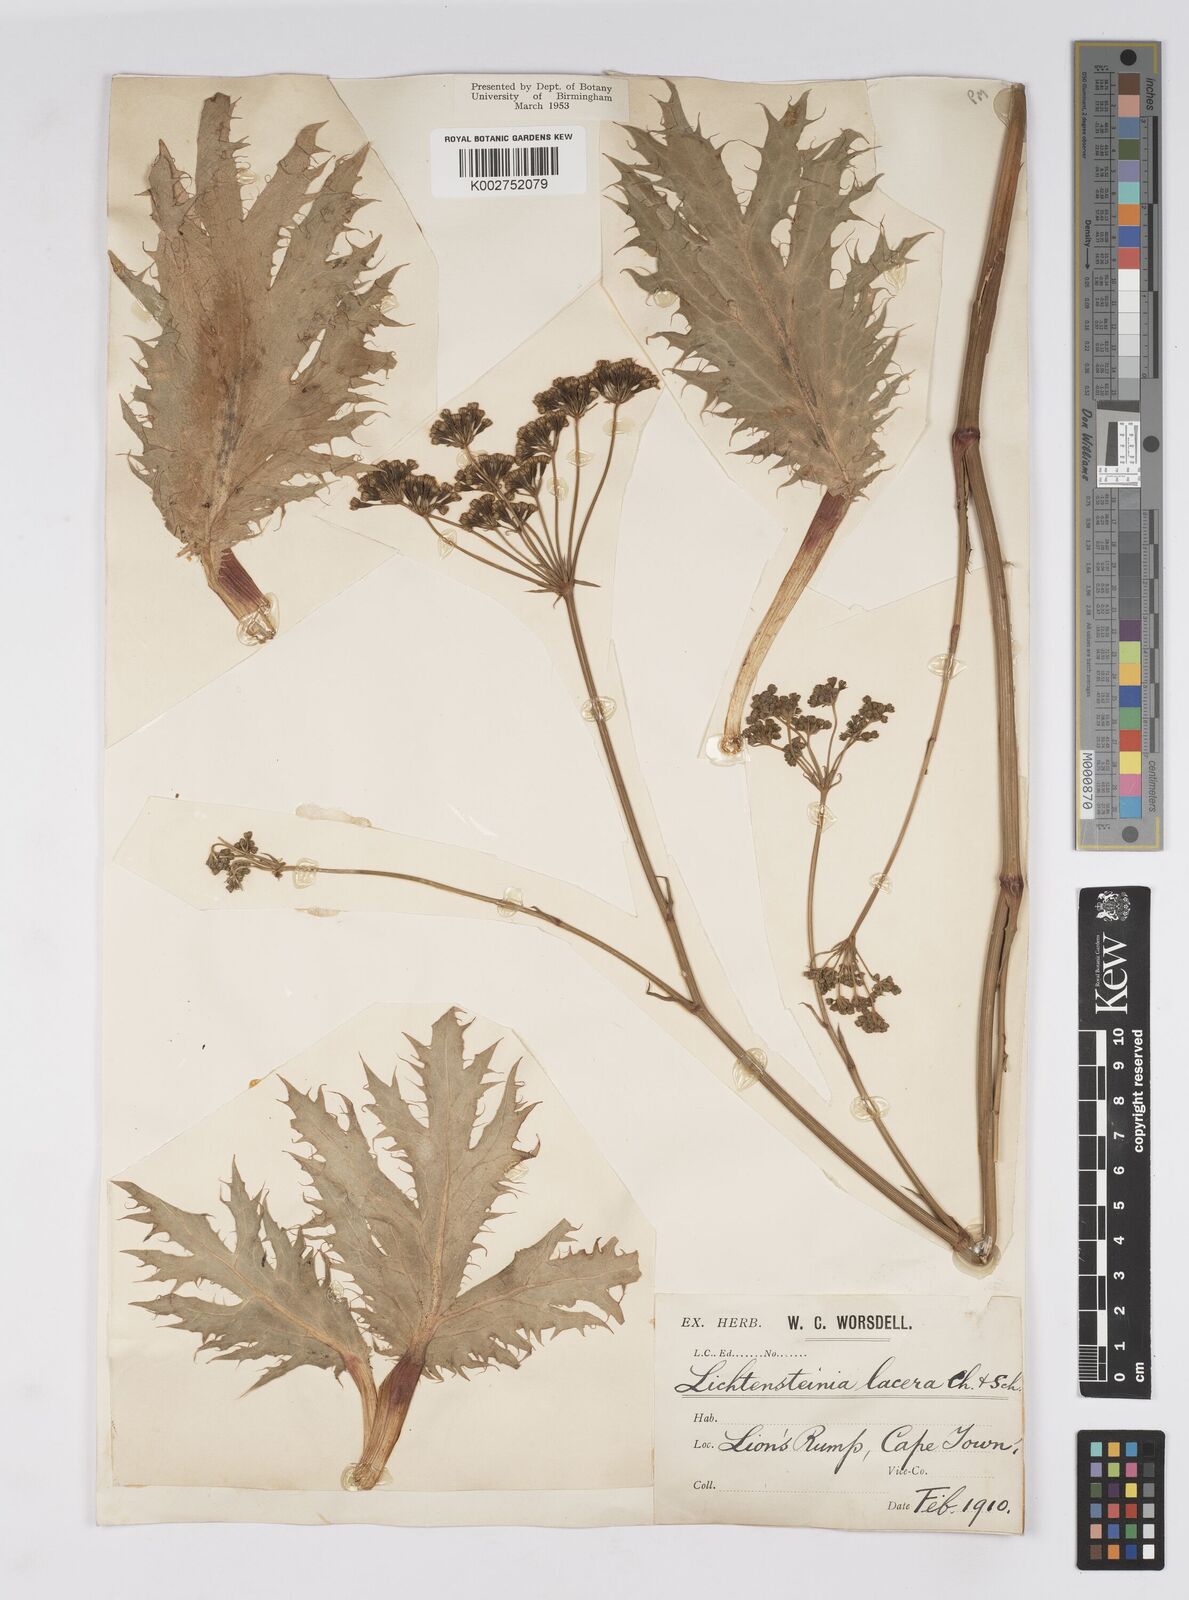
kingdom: Plantae
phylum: Tracheophyta
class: Magnoliopsida
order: Apiales
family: Apiaceae
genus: Lichtensteinia
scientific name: Lichtensteinia lacera
